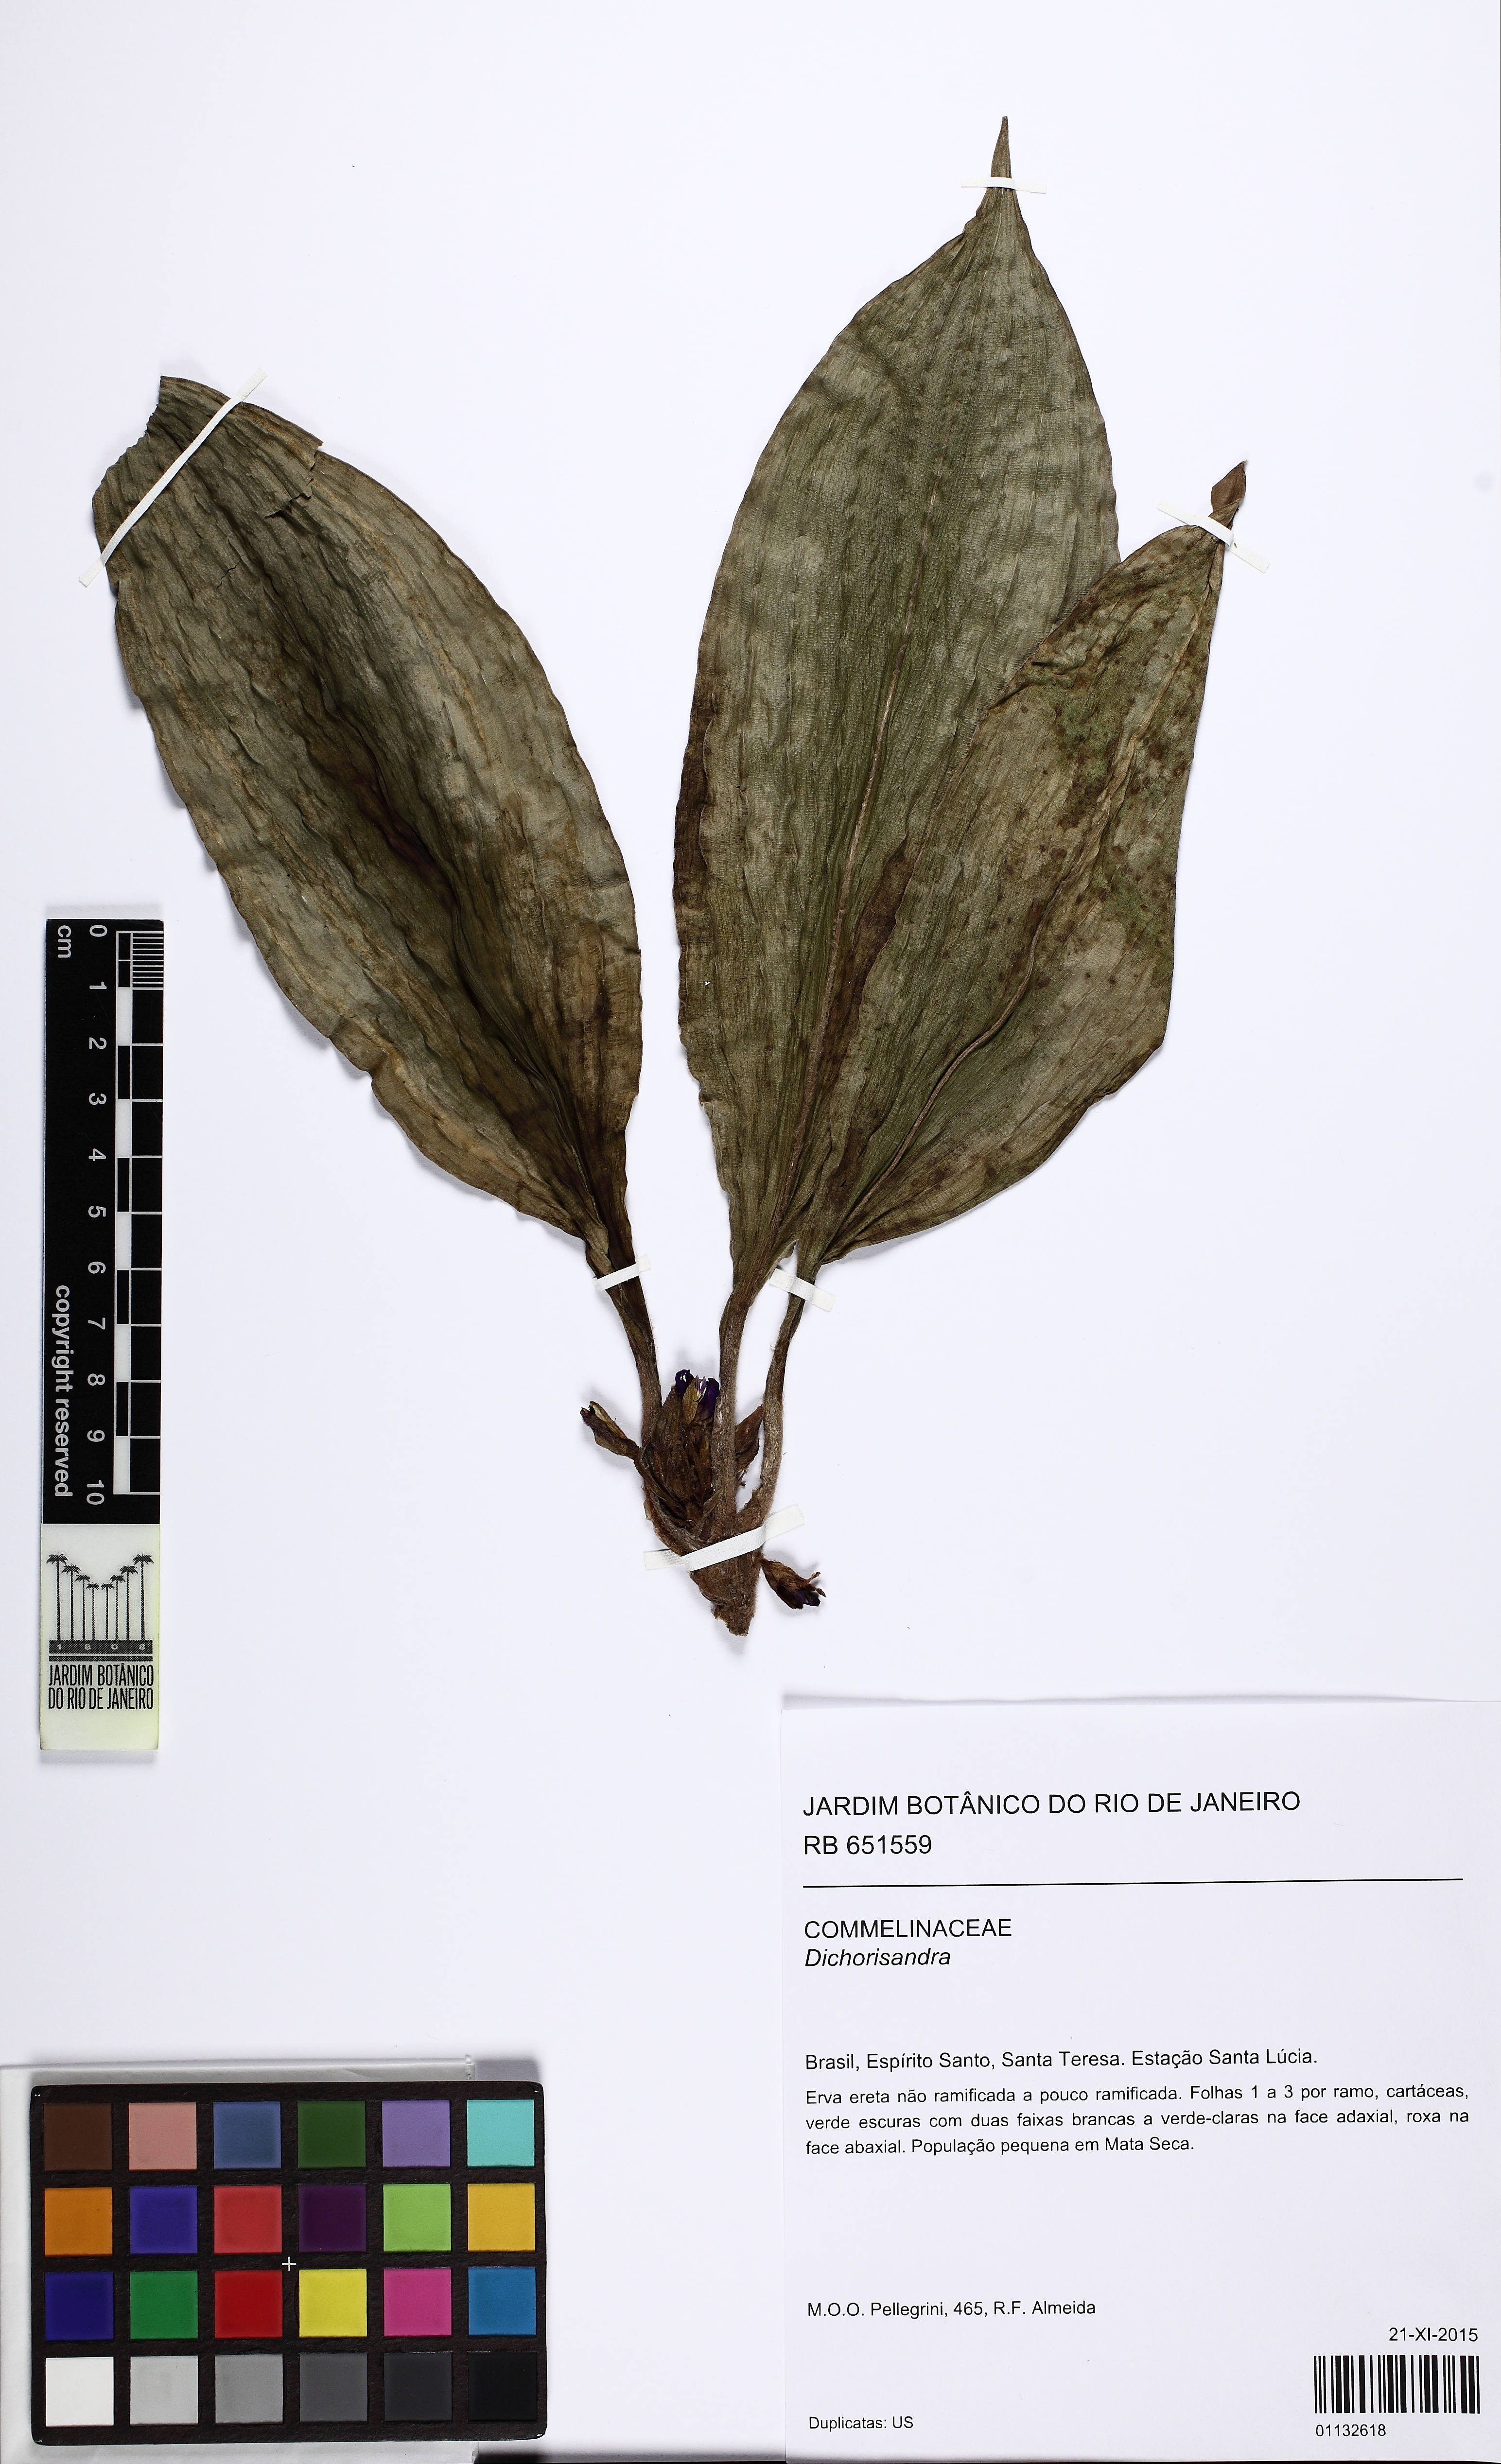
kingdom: Plantae
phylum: Tracheophyta
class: Liliopsida
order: Commelinales
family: Commelinaceae
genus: Dichorisandra
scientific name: Dichorisandra acaulis
